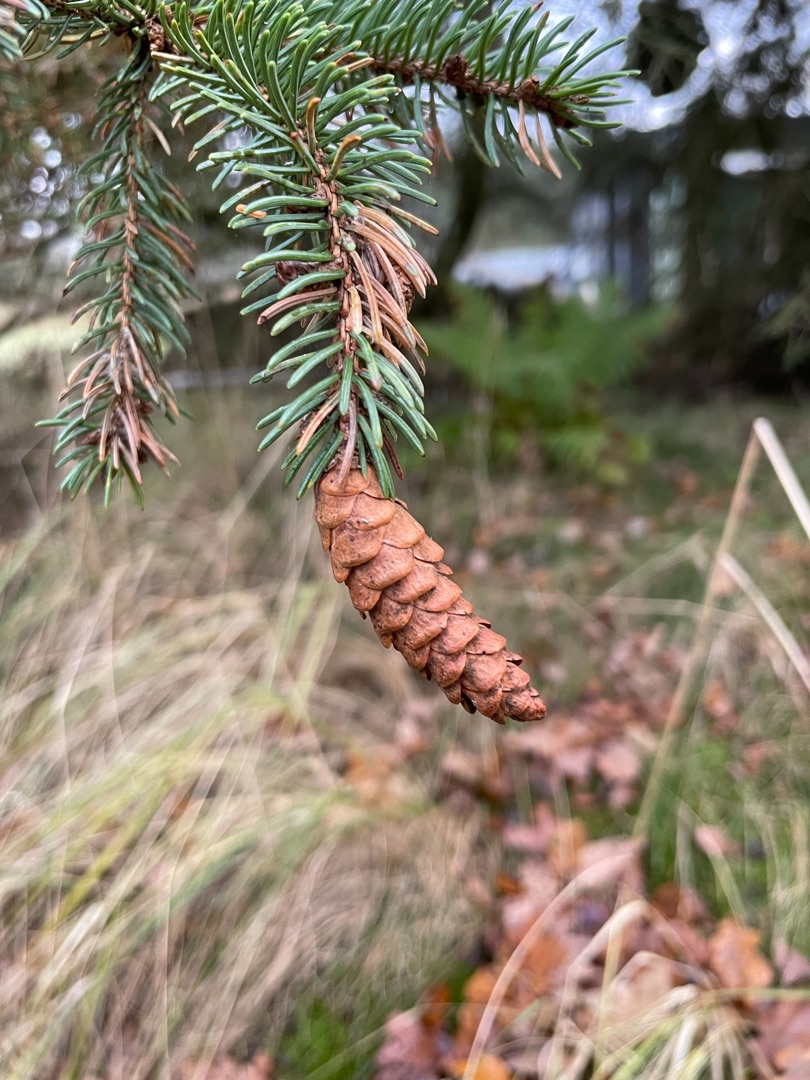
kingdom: Plantae
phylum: Tracheophyta
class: Pinopsida
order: Pinales
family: Pinaceae
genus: Picea
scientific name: Picea glauca
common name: Hvid-gran
